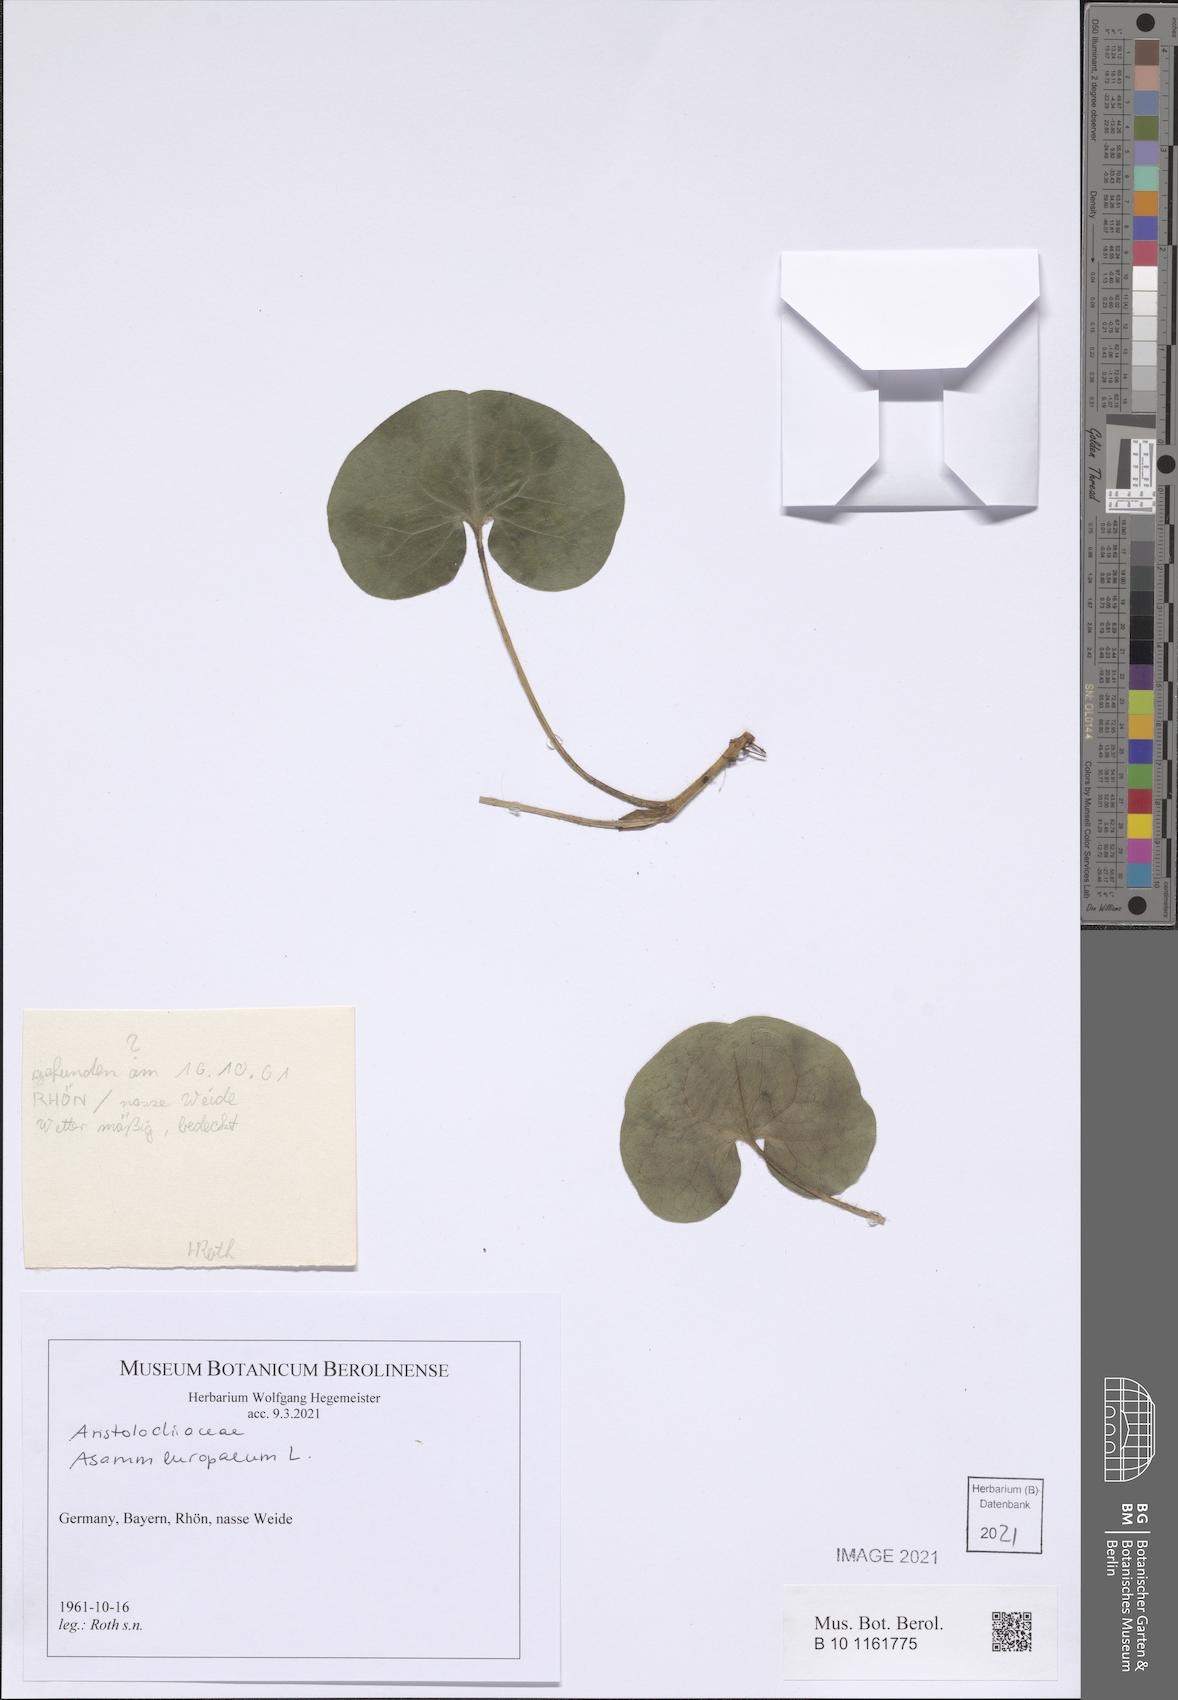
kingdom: Plantae
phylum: Tracheophyta
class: Magnoliopsida
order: Piperales
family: Aristolochiaceae
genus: Asarum
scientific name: Asarum europaeum
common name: Asarabacca
